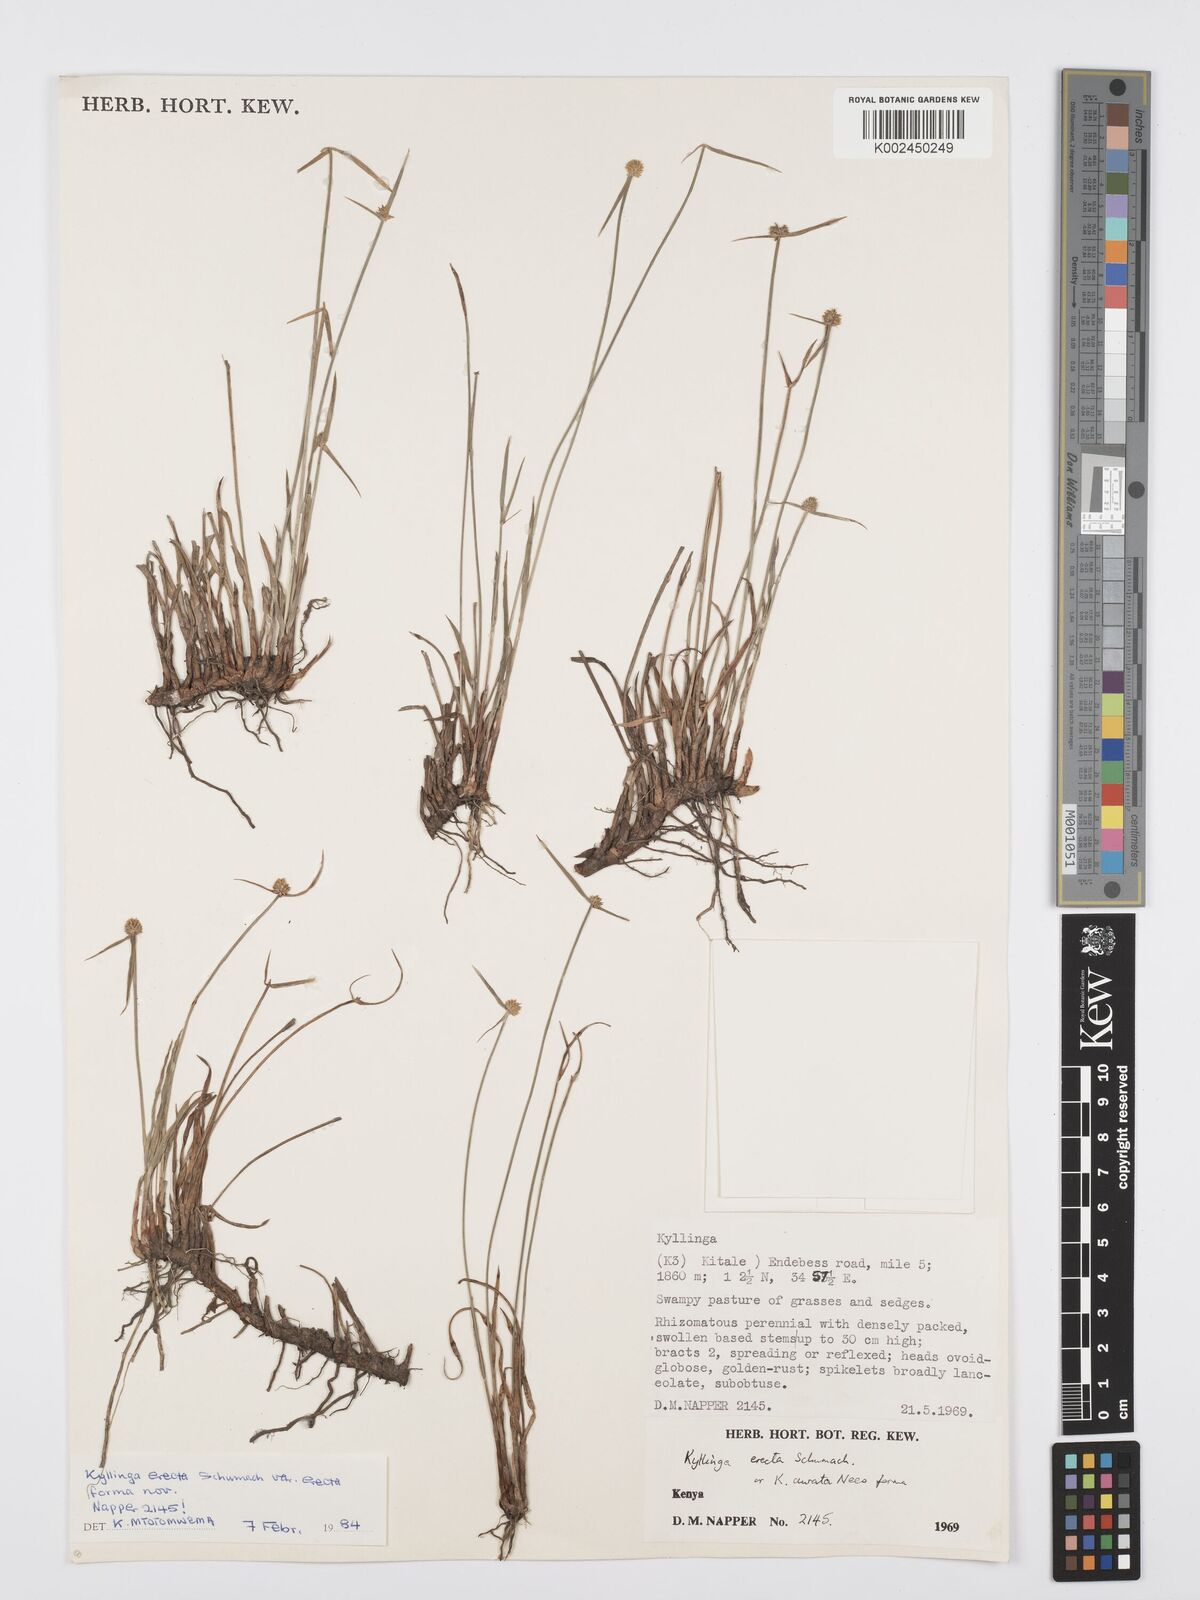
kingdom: Plantae
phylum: Tracheophyta
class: Liliopsida
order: Poales
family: Cyperaceae
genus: Cyperus
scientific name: Cyperus
